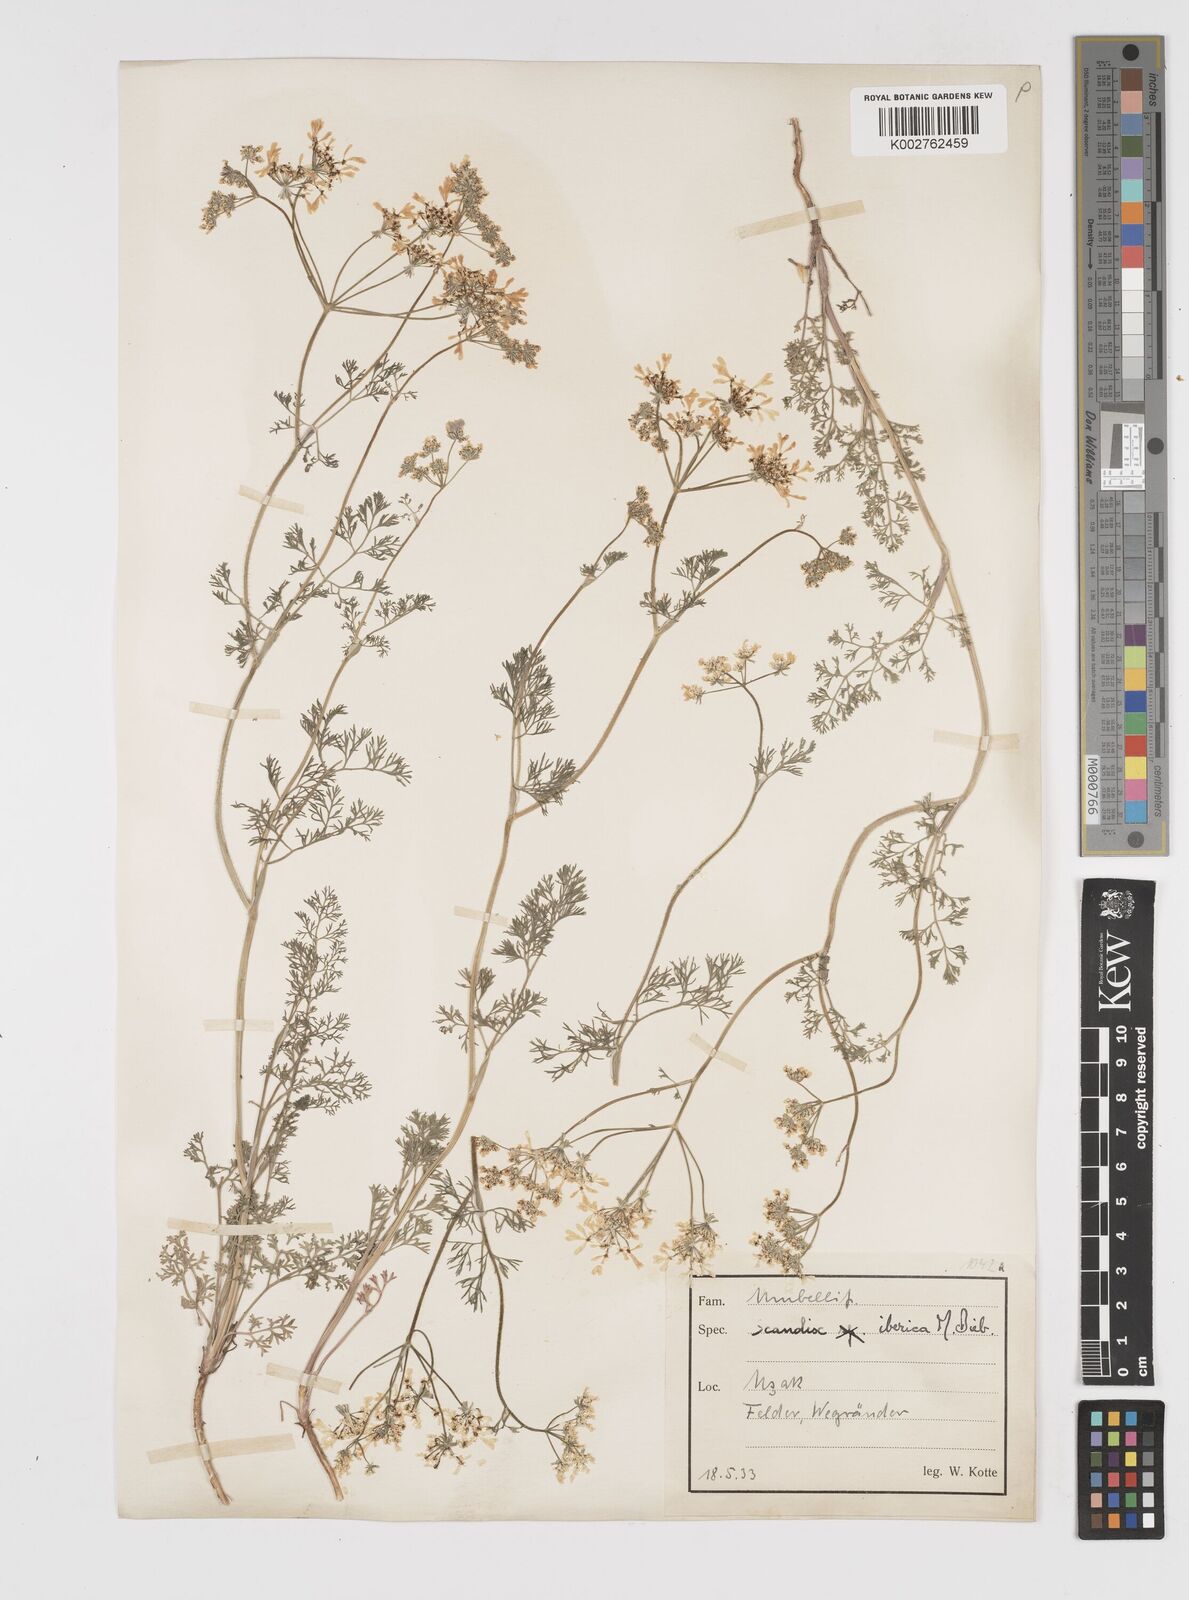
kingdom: Plantae
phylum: Tracheophyta
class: Magnoliopsida
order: Apiales
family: Apiaceae
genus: Scandix
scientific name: Scandix iberica
